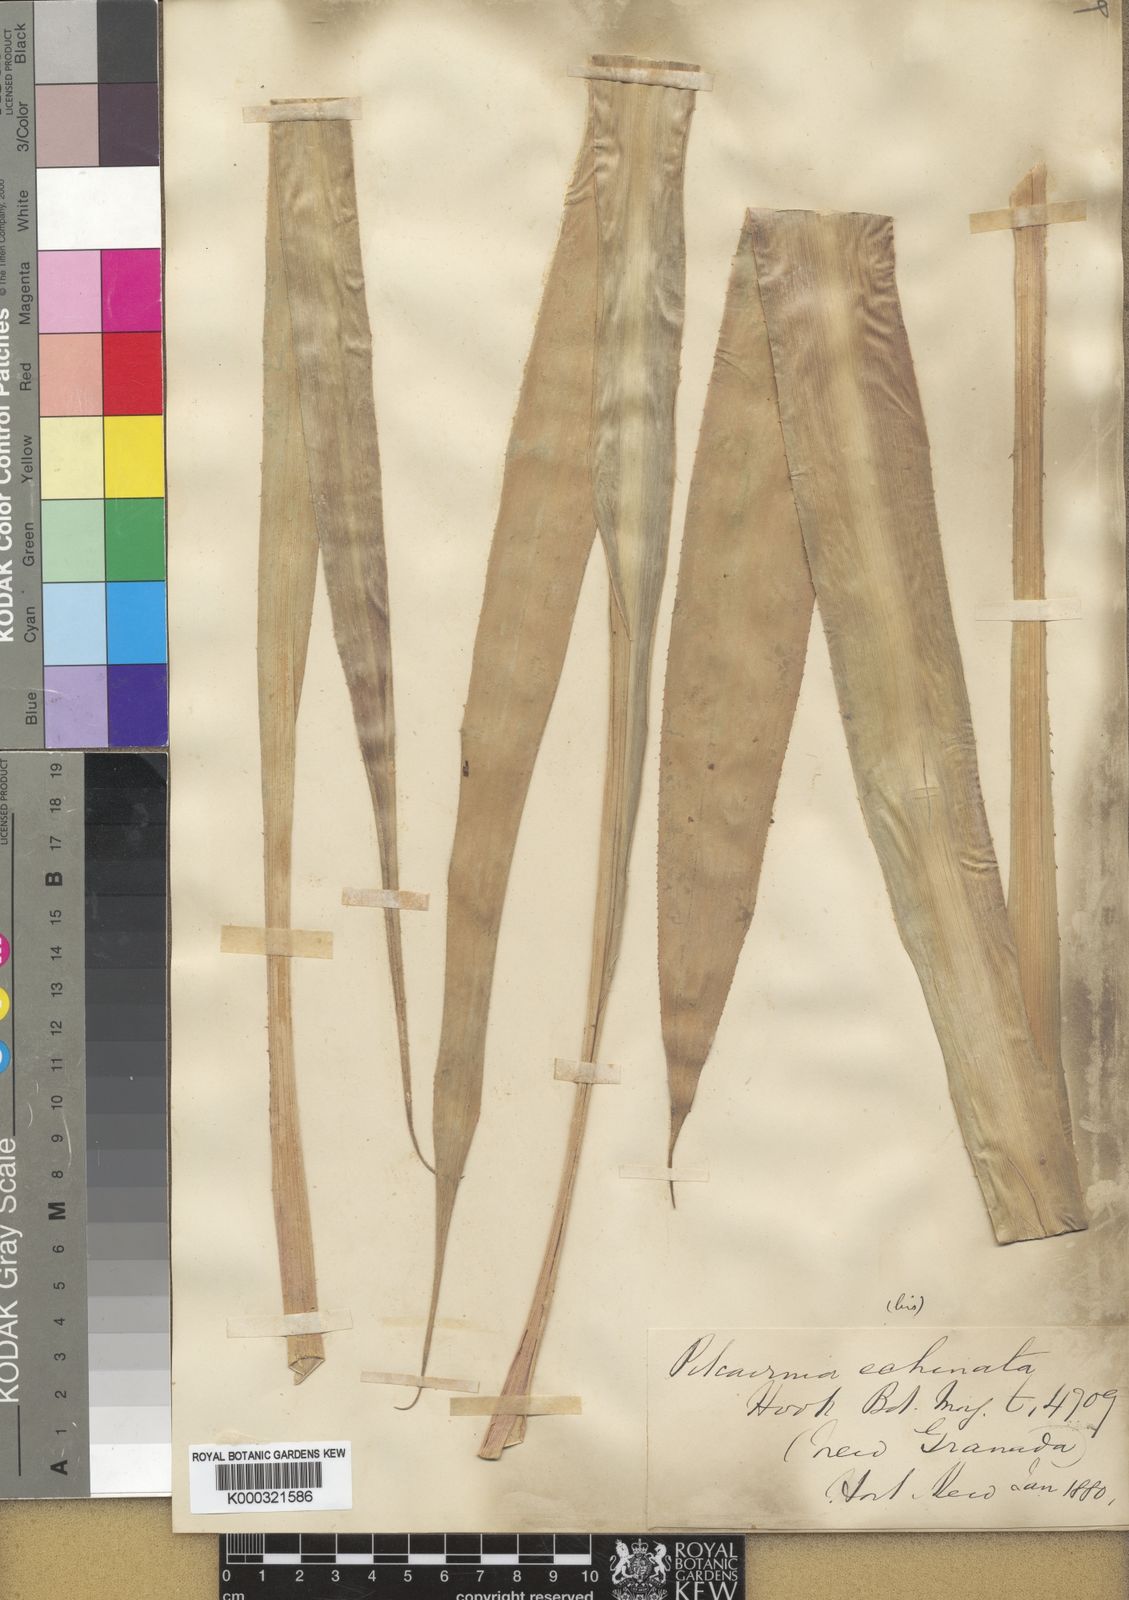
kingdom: Plantae
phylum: Tracheophyta
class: Liliopsida
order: Poales
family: Bromeliaceae
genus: Pitcairnia
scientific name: Pitcairnia echinata
